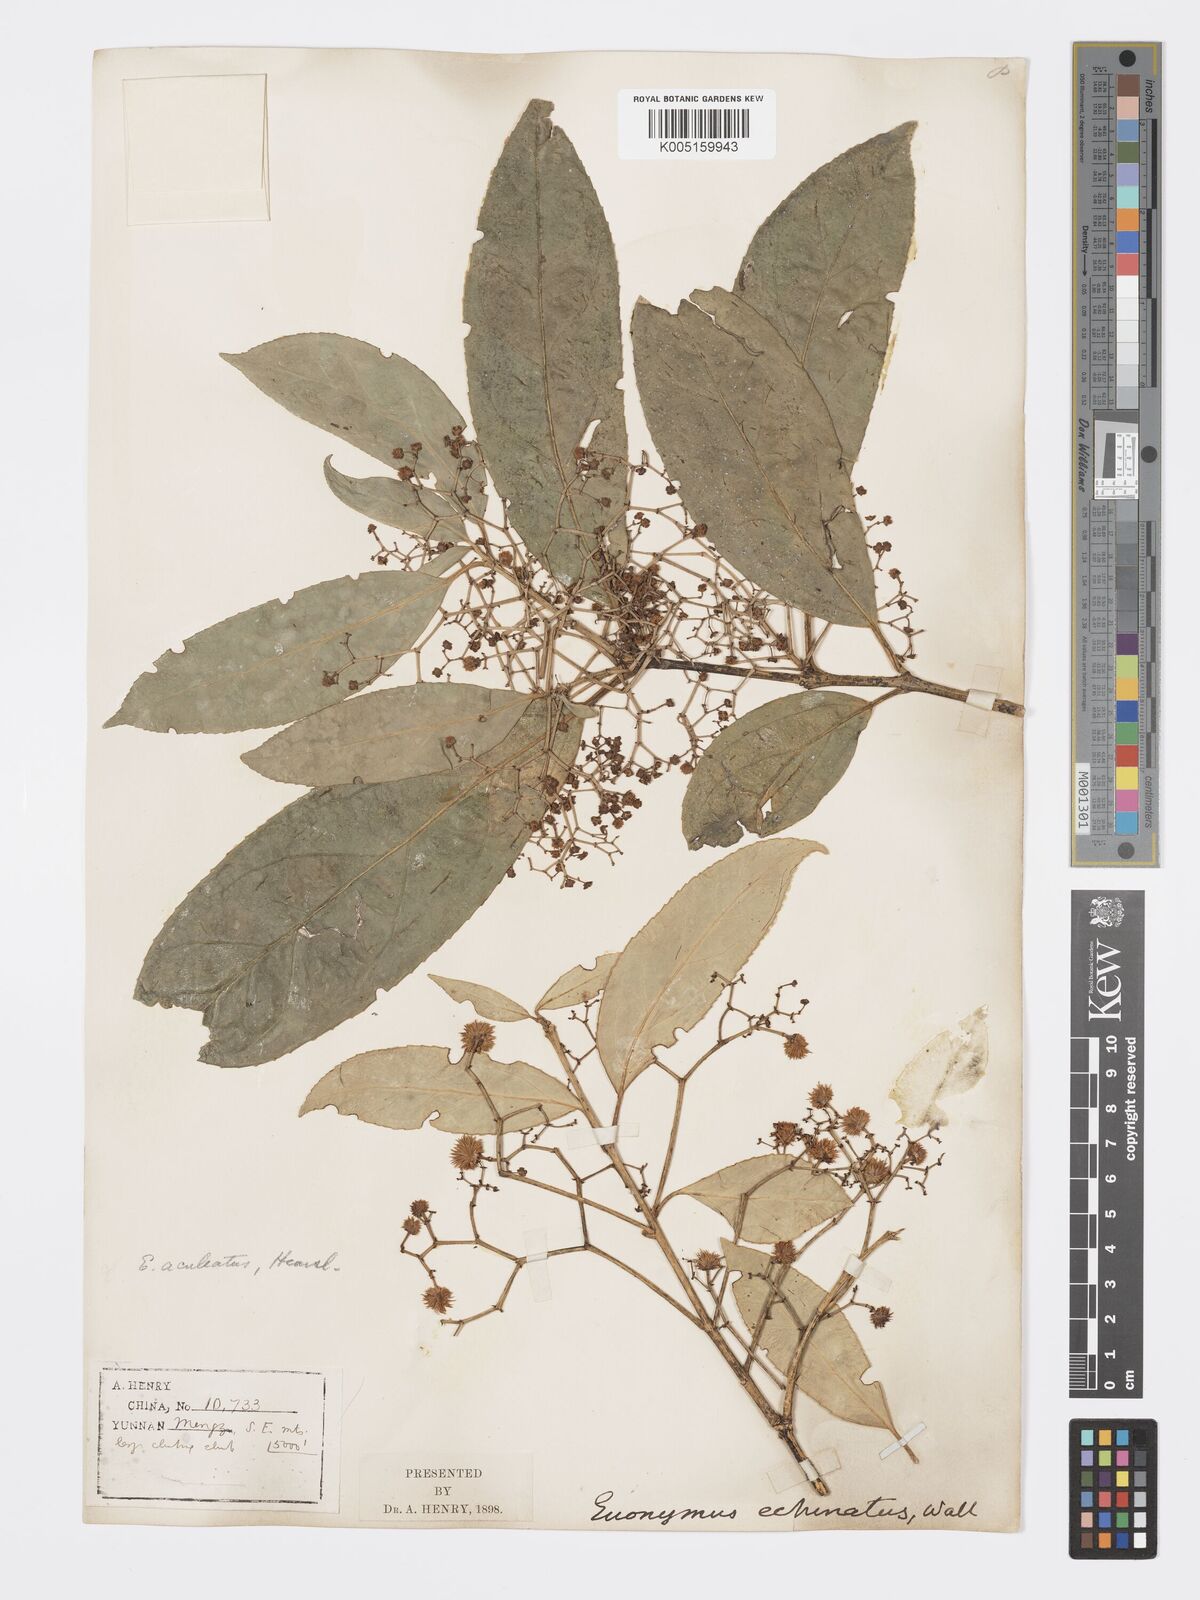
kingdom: Plantae
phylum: Tracheophyta
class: Magnoliopsida
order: Celastrales
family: Celastraceae
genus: Euonymus
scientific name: Euonymus aculeatus
